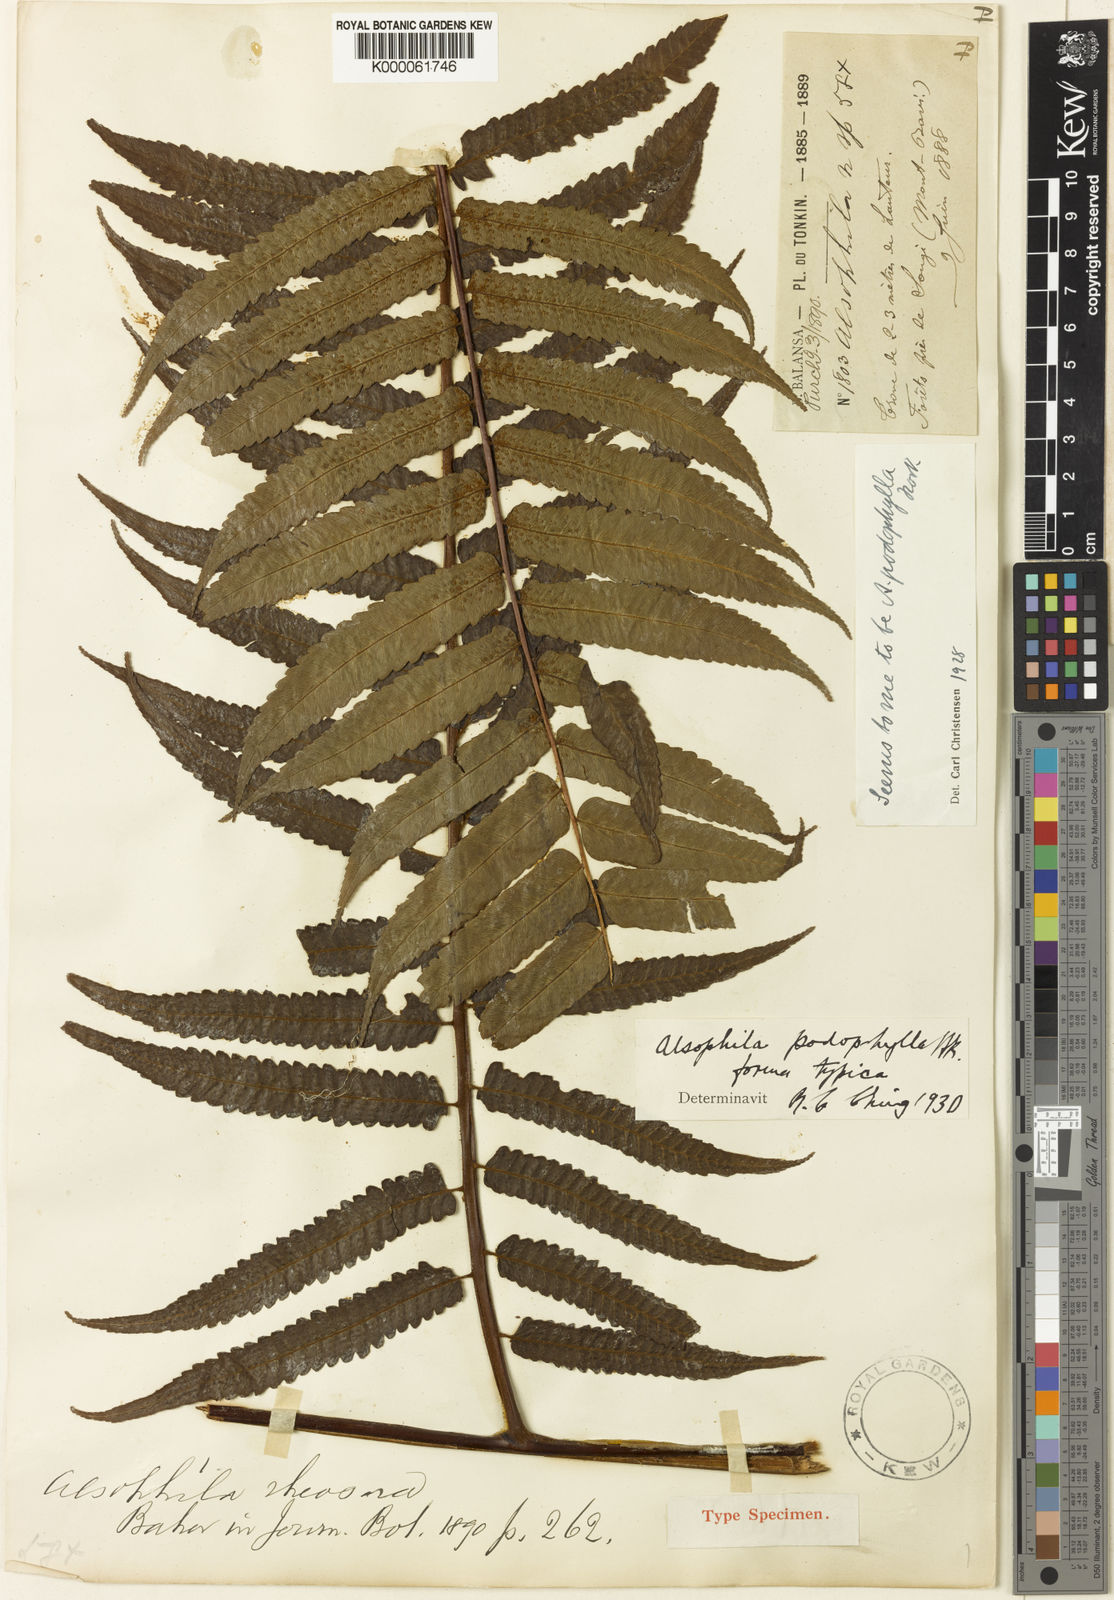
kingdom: Plantae
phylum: Tracheophyta
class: Polypodiopsida
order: Cyatheales
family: Cyatheaceae
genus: Gymnosphaera
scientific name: Gymnosphaera podophylla
